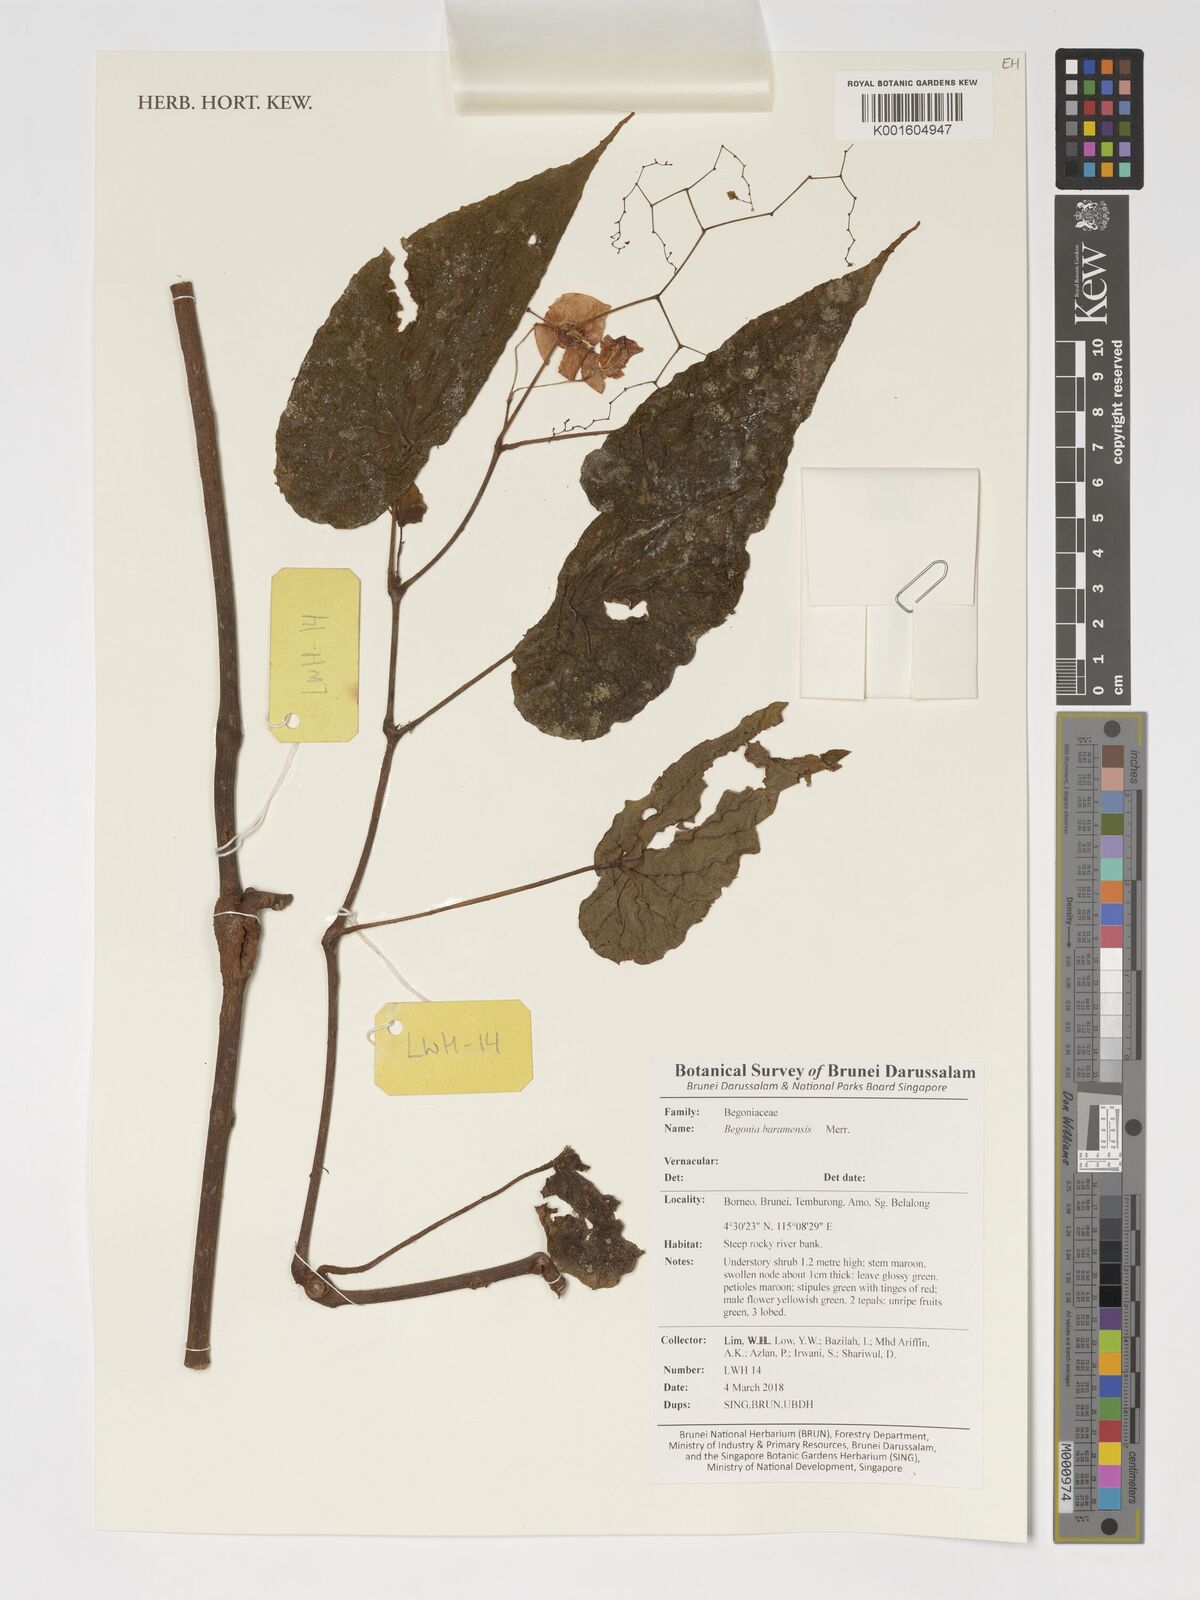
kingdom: Plantae
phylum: Tracheophyta
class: Magnoliopsida
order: Cucurbitales
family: Begoniaceae
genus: Begonia
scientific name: Begonia baramensis
